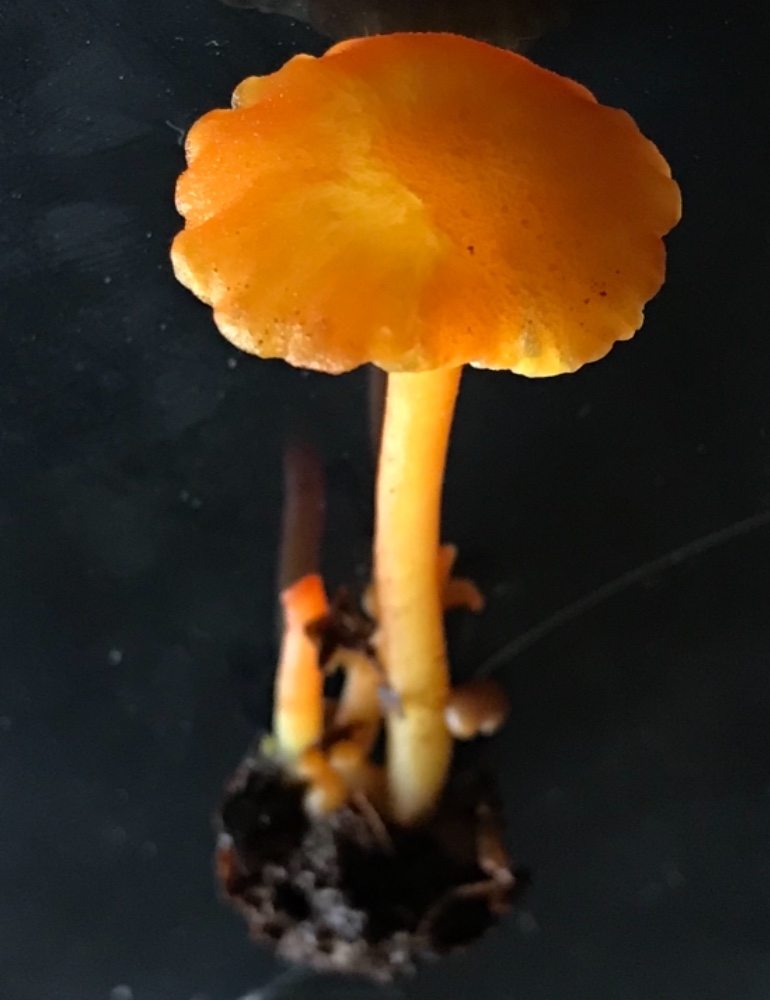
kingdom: Fungi
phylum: Basidiomycota
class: Agaricomycetes
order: Agaricales
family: Hygrophoraceae
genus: Hygrocybe
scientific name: Hygrocybe cantharellus
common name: kantarel-vokshat
